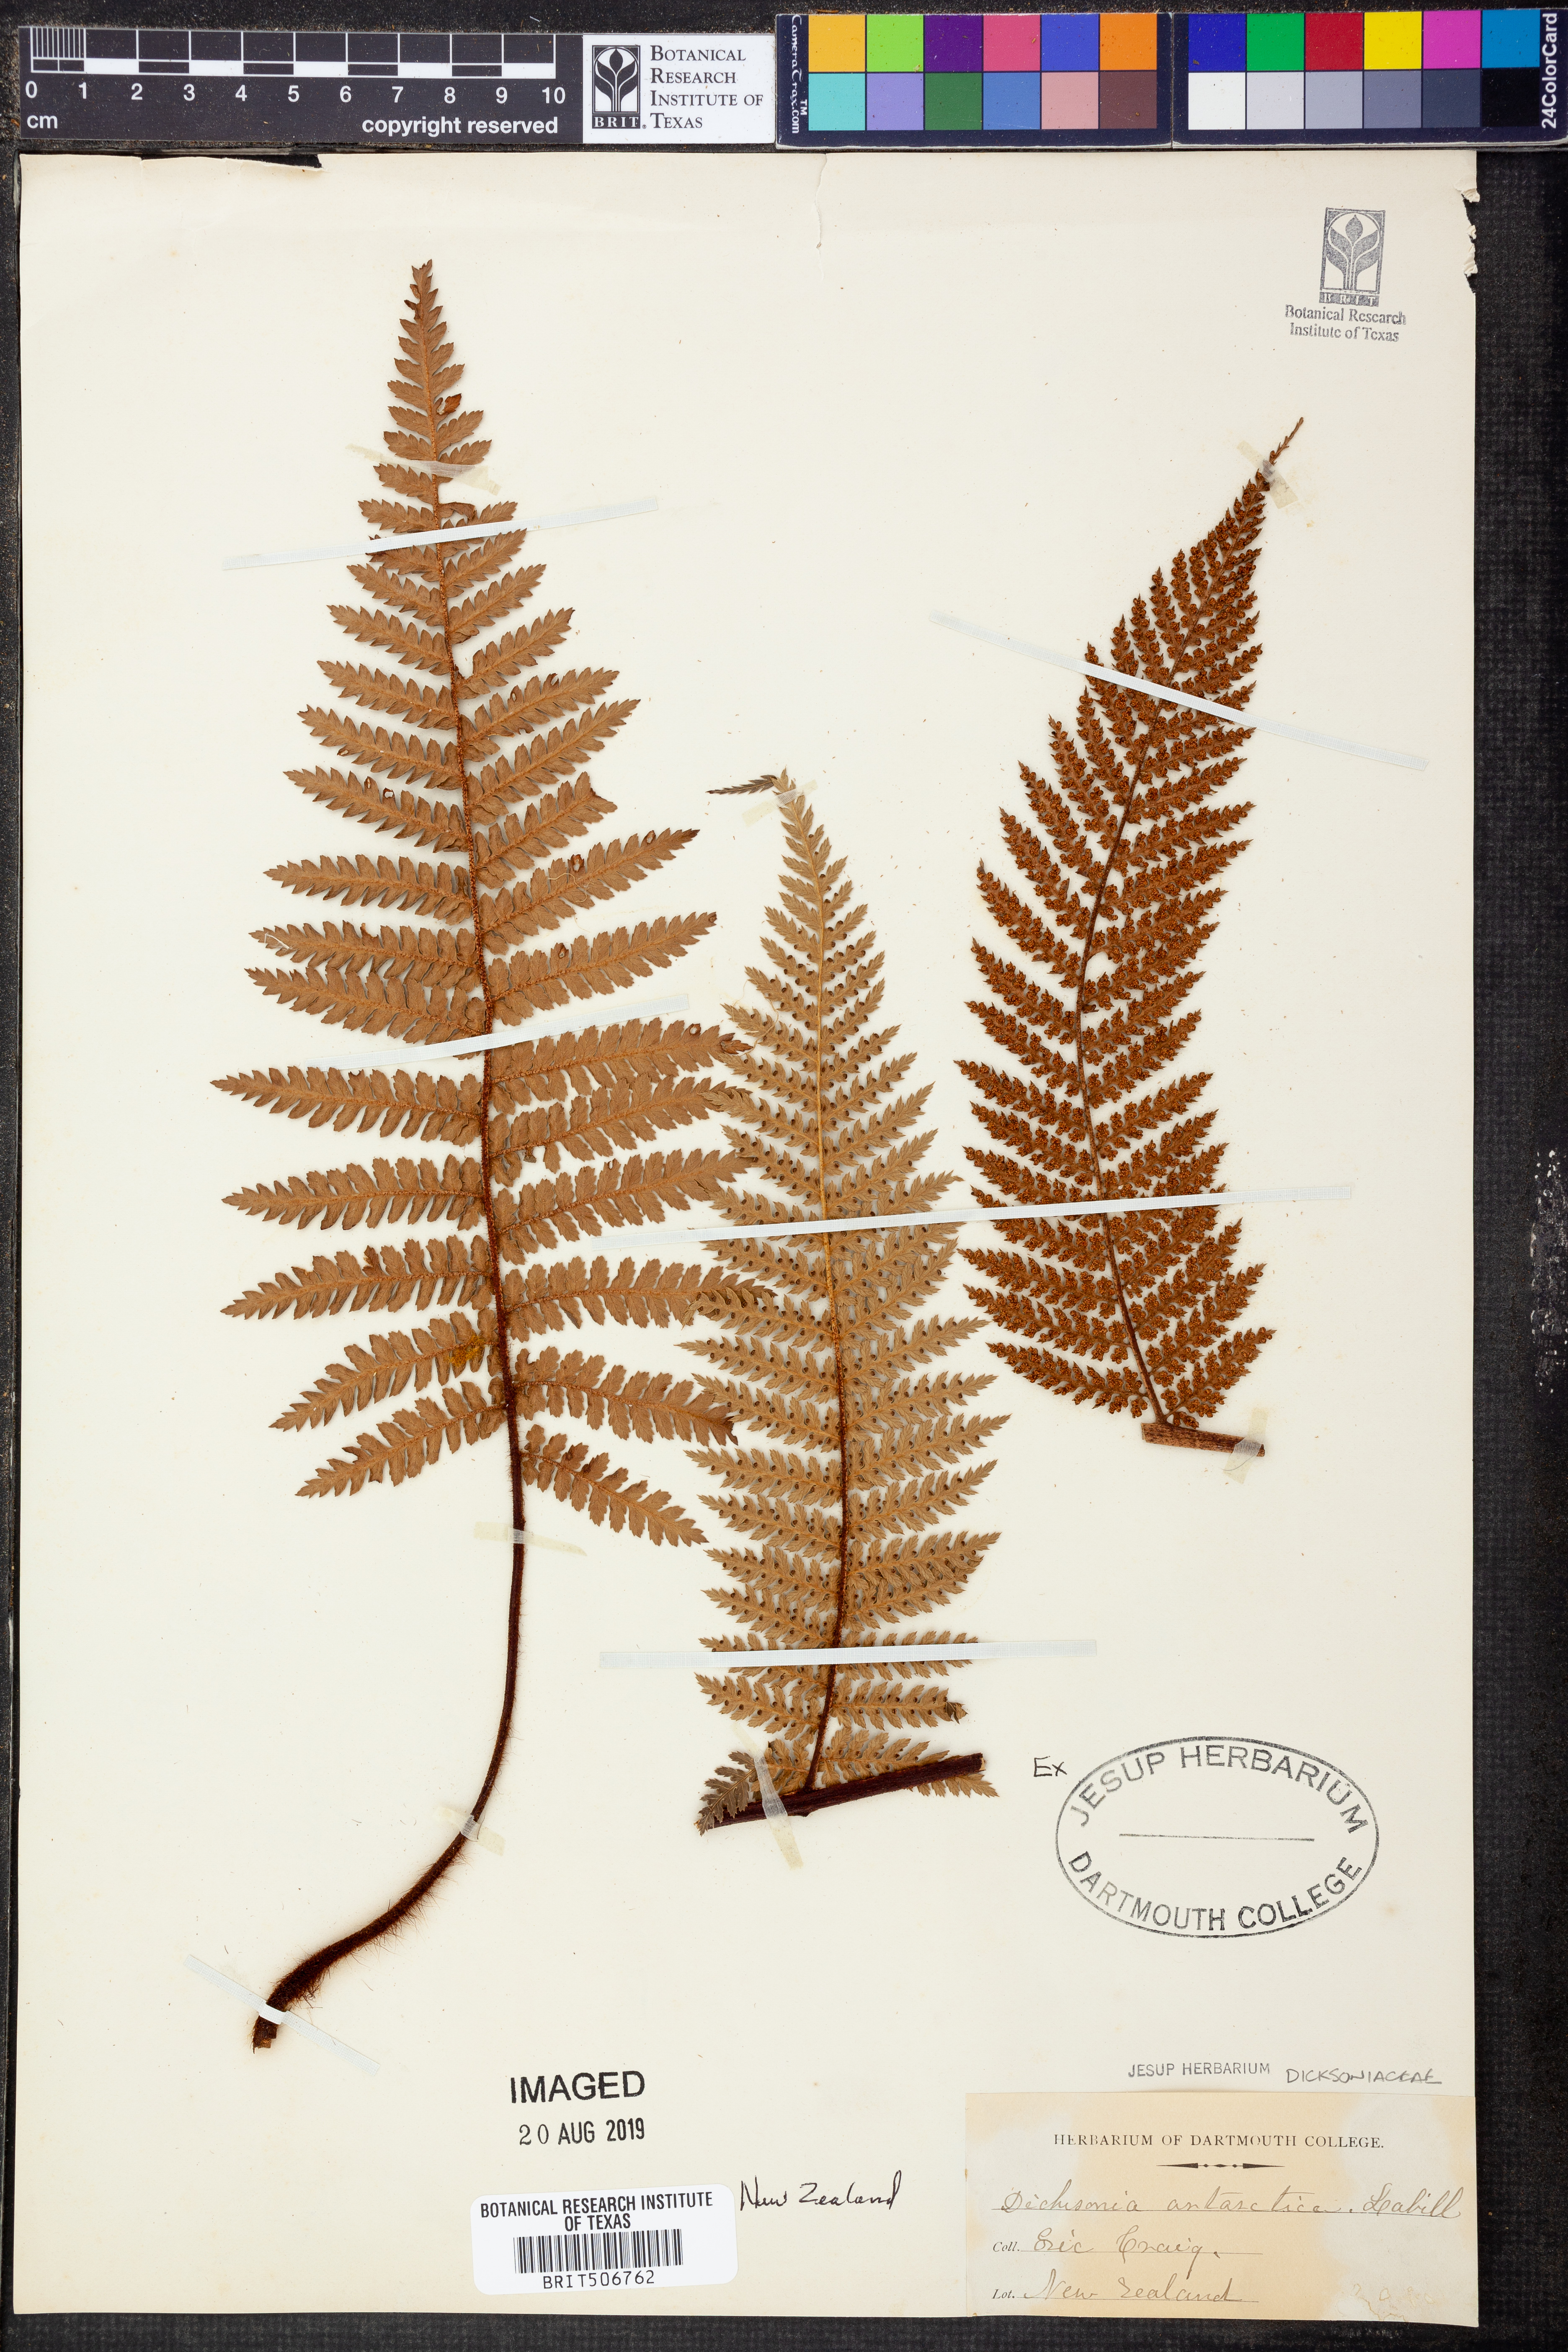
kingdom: Plantae
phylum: Tracheophyta
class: Polypodiopsida
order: Cyatheales
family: Dicksoniaceae
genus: Dicksonia
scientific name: Dicksonia antarctica
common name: Australian treefern
